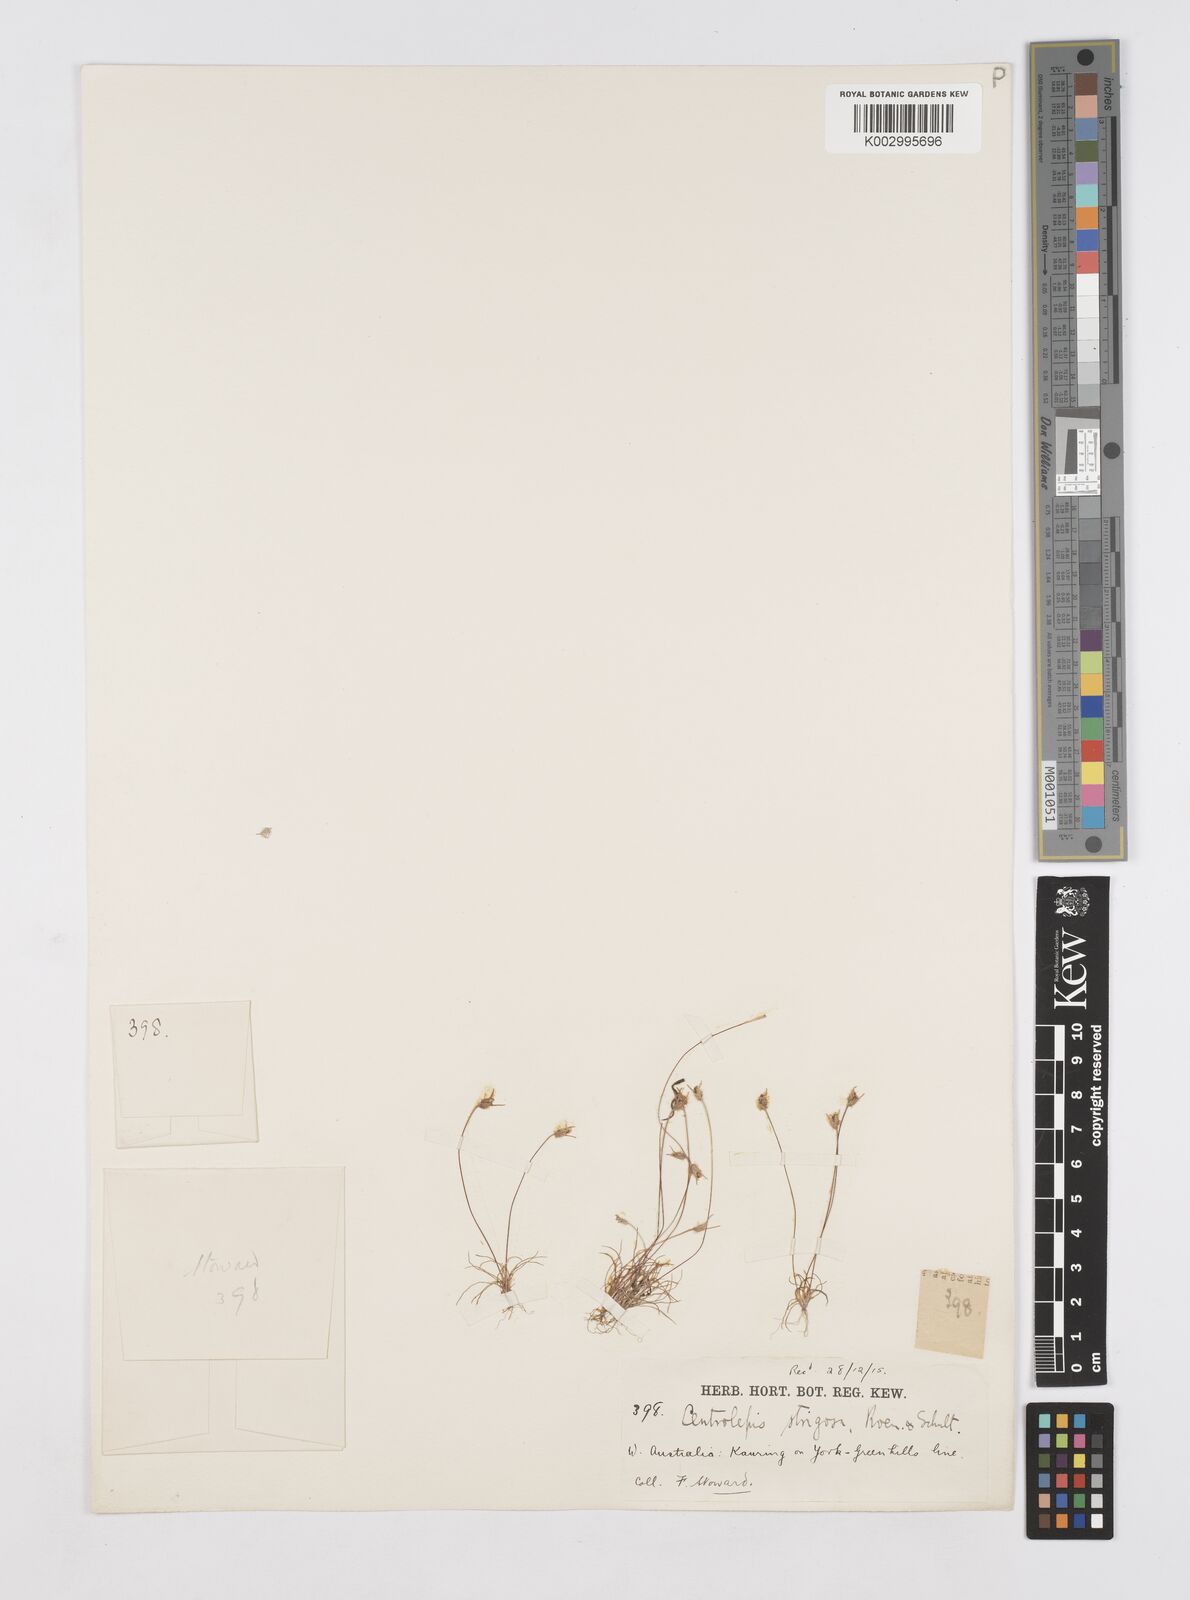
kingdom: Plantae
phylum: Tracheophyta
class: Liliopsida
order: Poales
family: Restionaceae
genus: Centrolepis
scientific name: Centrolepis strigosa
